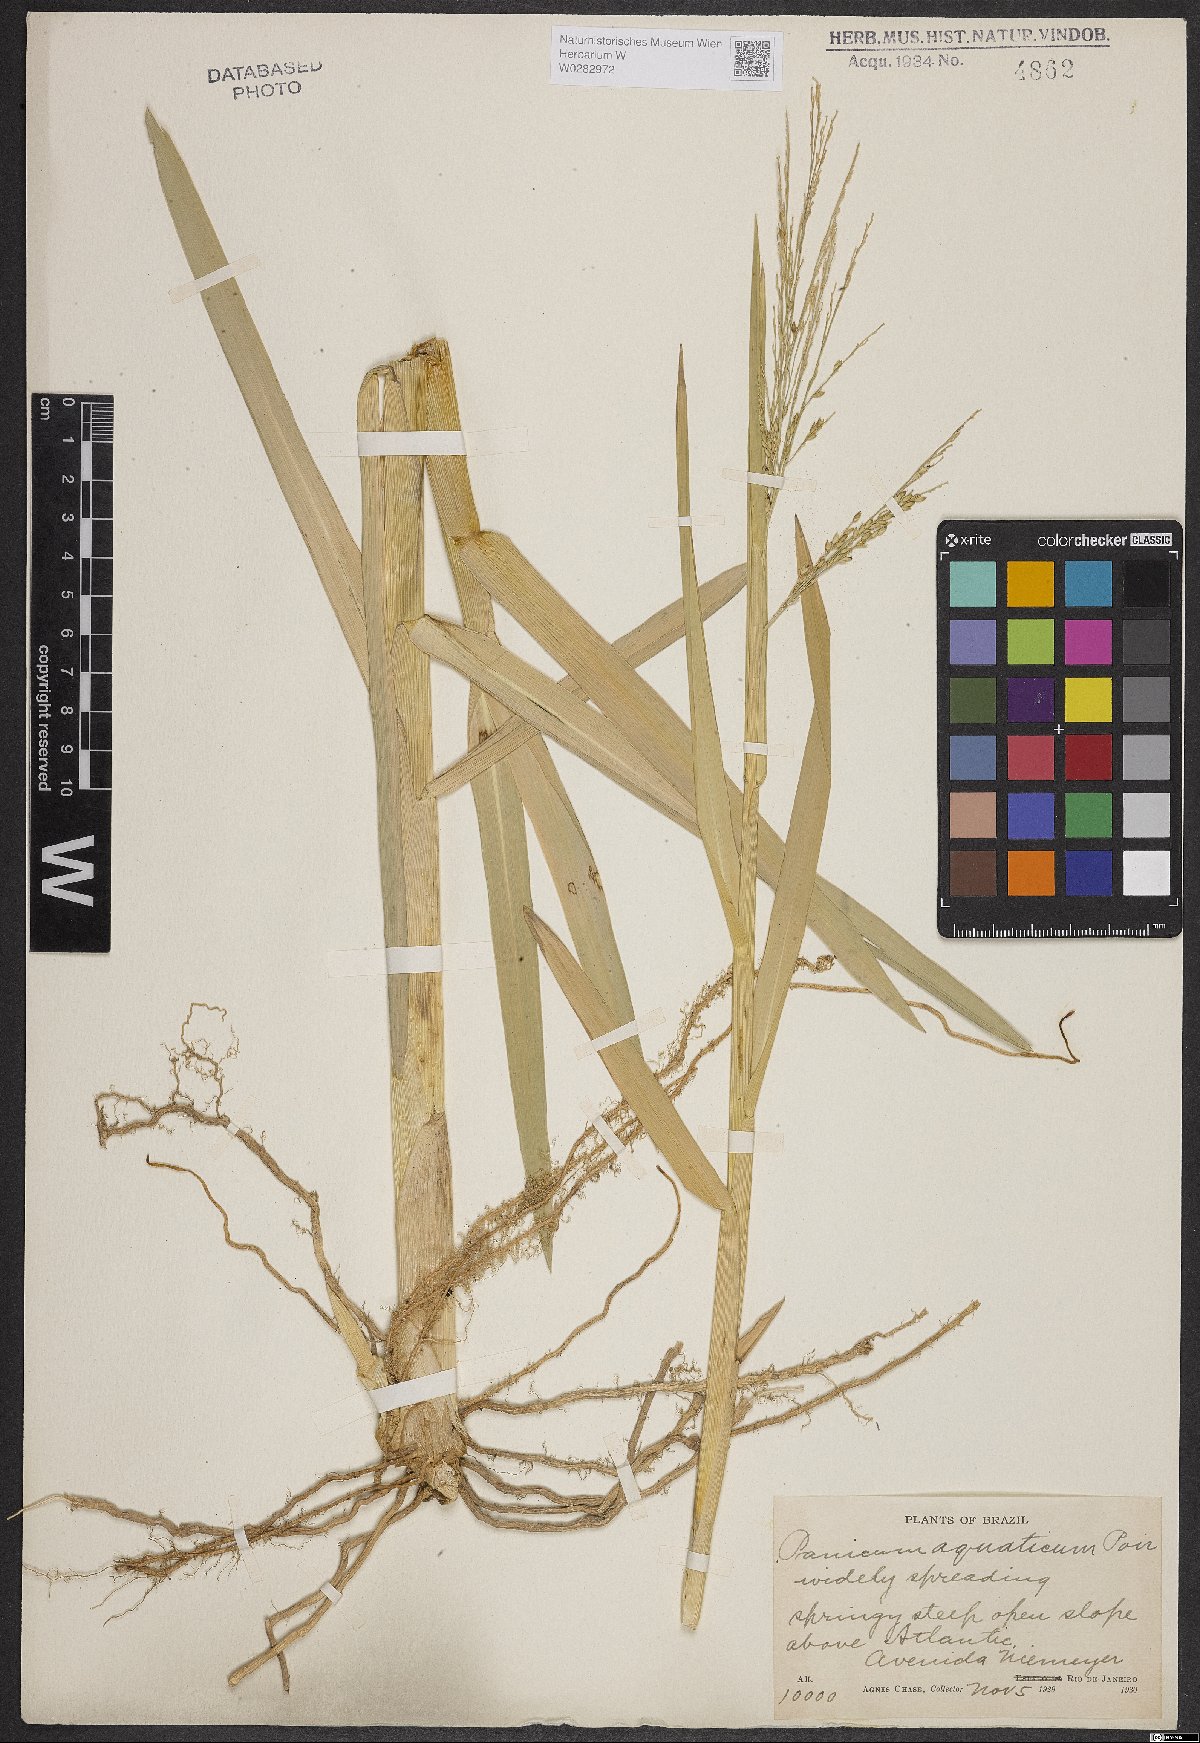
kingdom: Plantae
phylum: Tracheophyta
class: Liliopsida
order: Poales
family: Poaceae
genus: Panicum
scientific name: Panicum aquaticum
